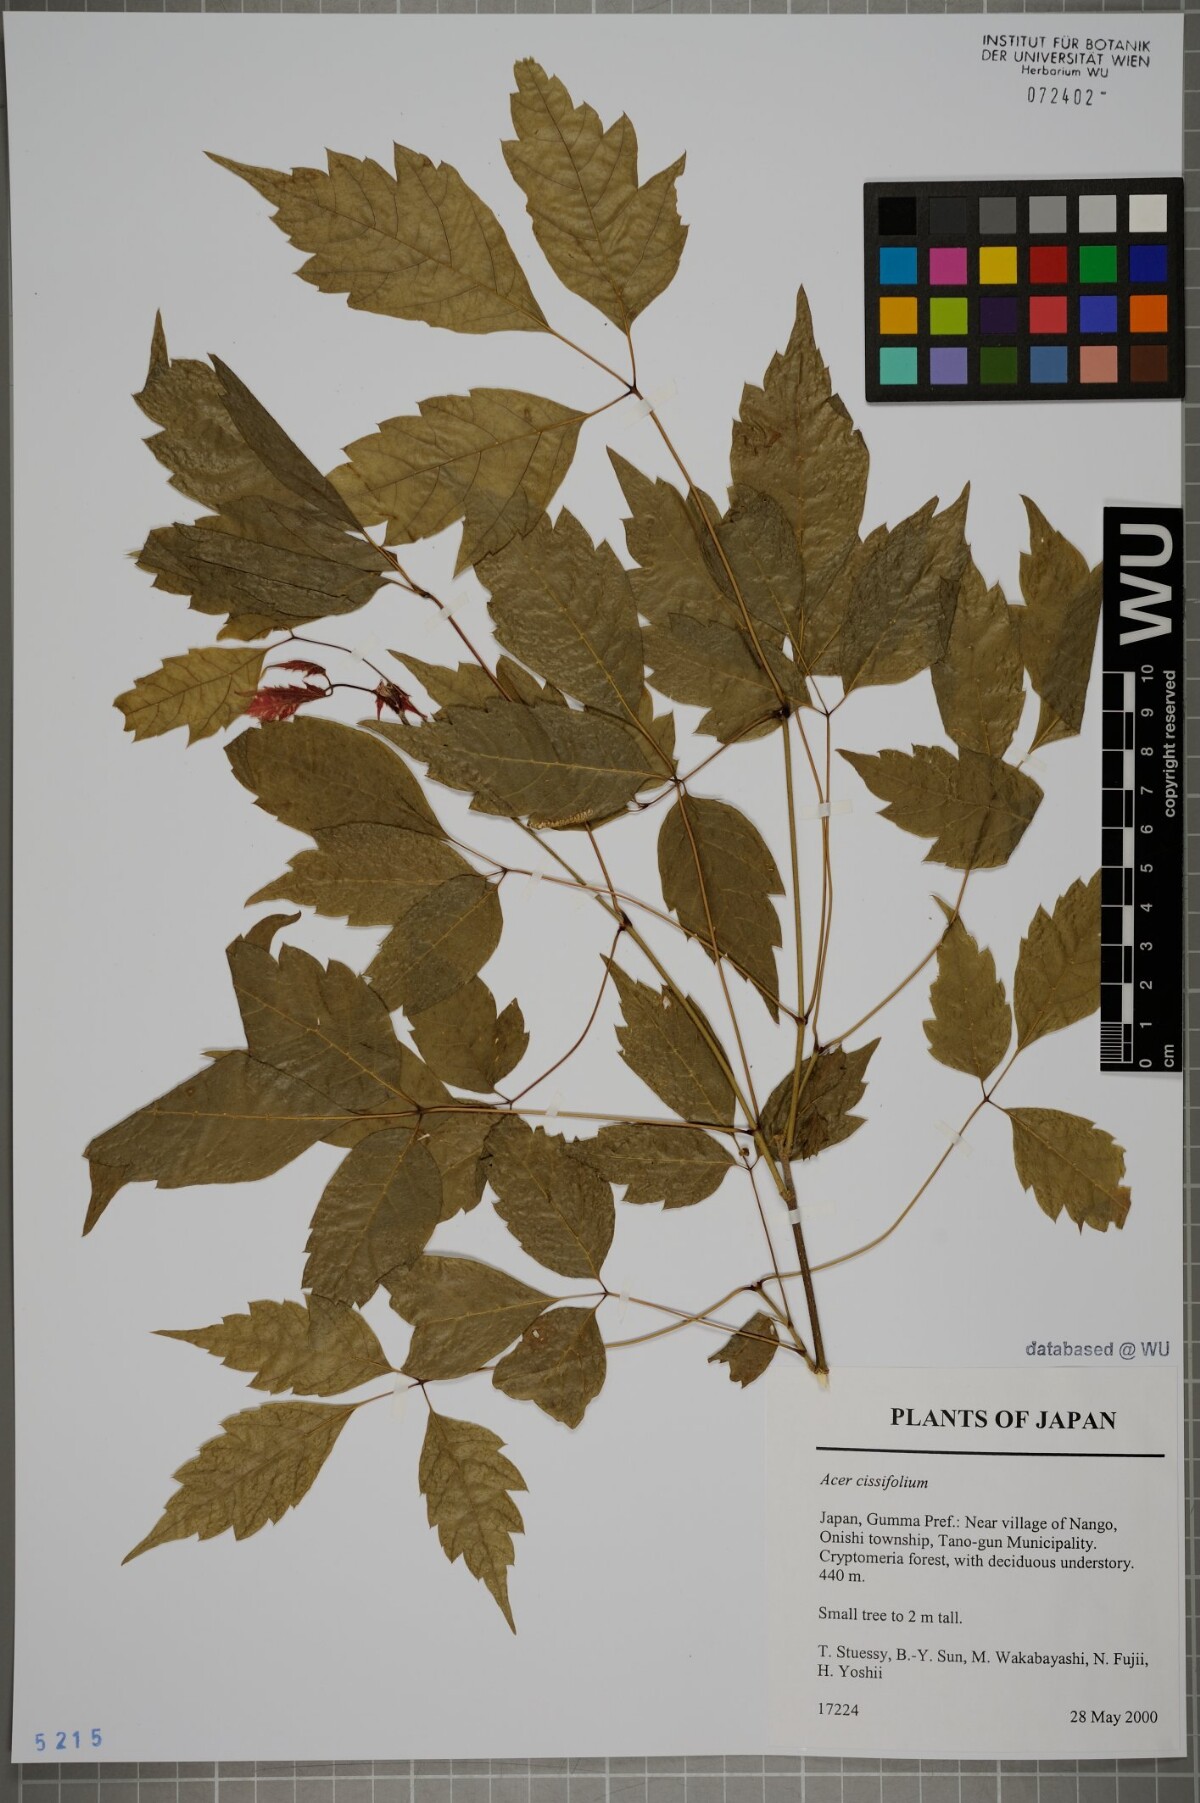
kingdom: Plantae
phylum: Tracheophyta
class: Magnoliopsida
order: Sapindales
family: Sapindaceae
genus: Acer
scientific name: Acer cissifolium
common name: Ivyleaf maple
